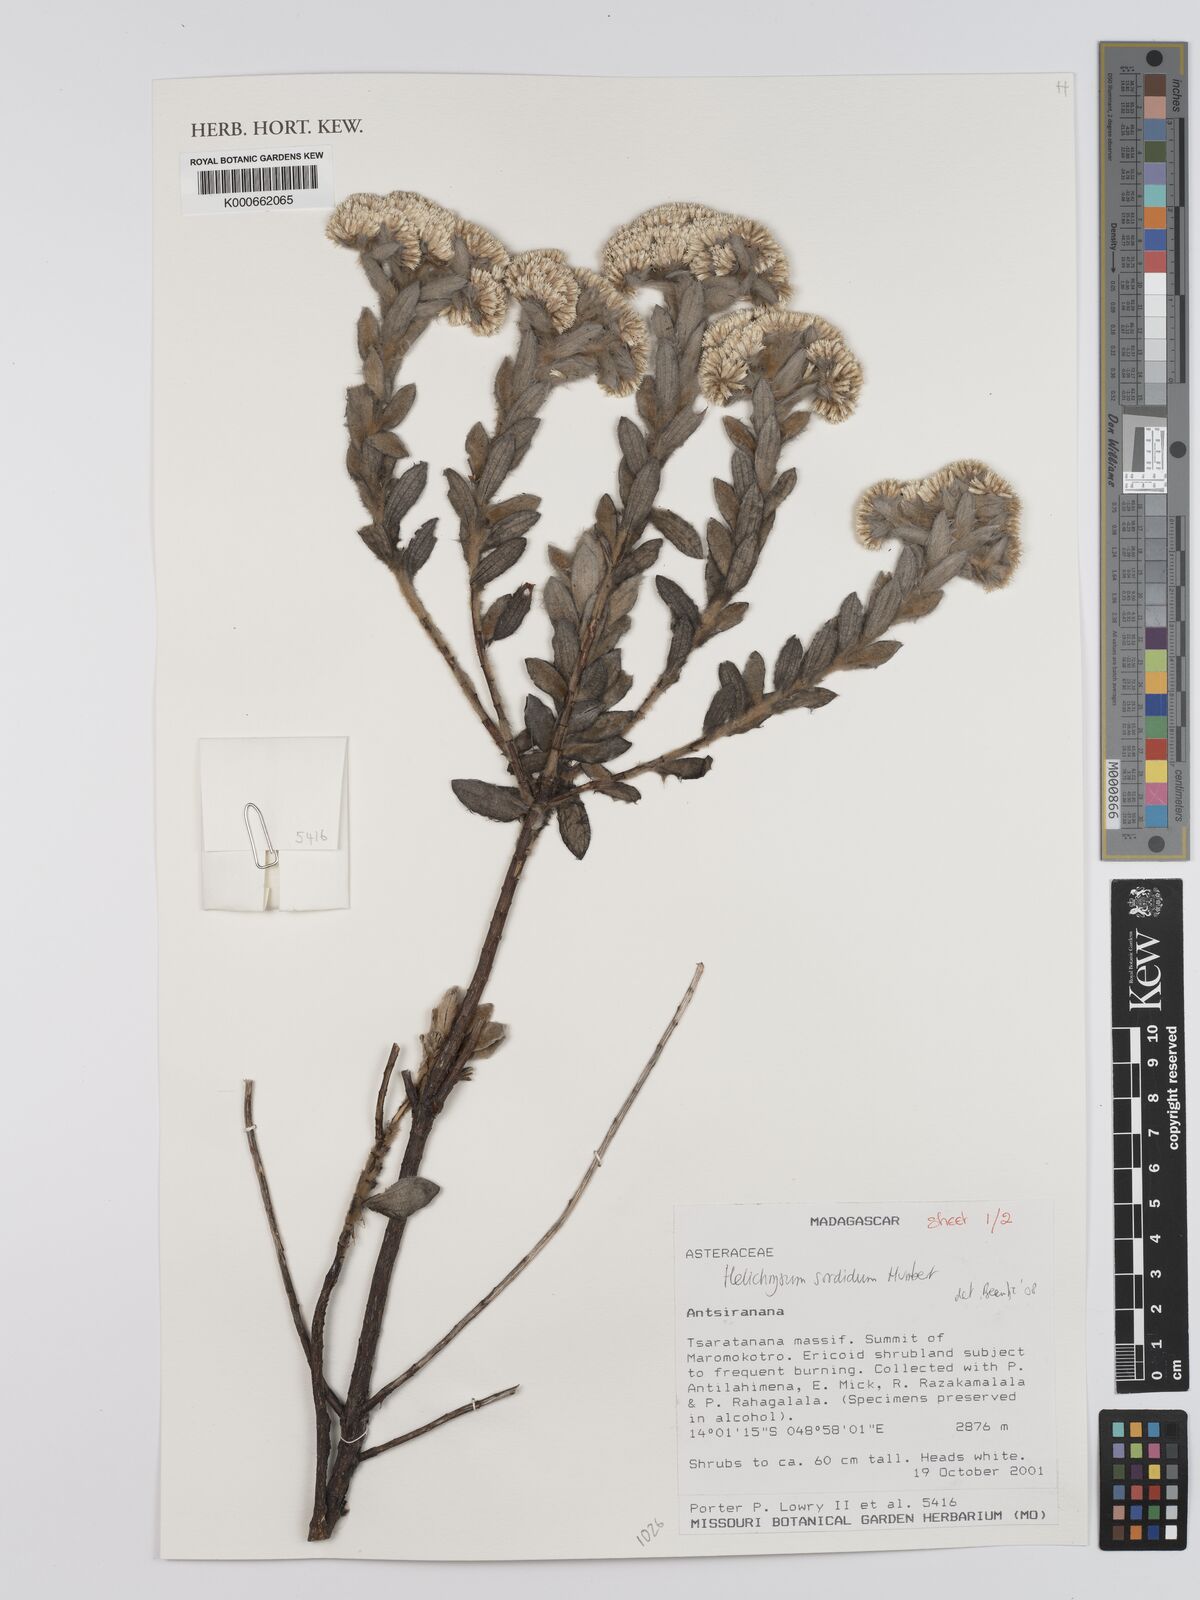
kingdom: Plantae
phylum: Tracheophyta
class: Magnoliopsida
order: Asterales
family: Asteraceae
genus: Helichrysum
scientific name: Helichrysum sordidum
